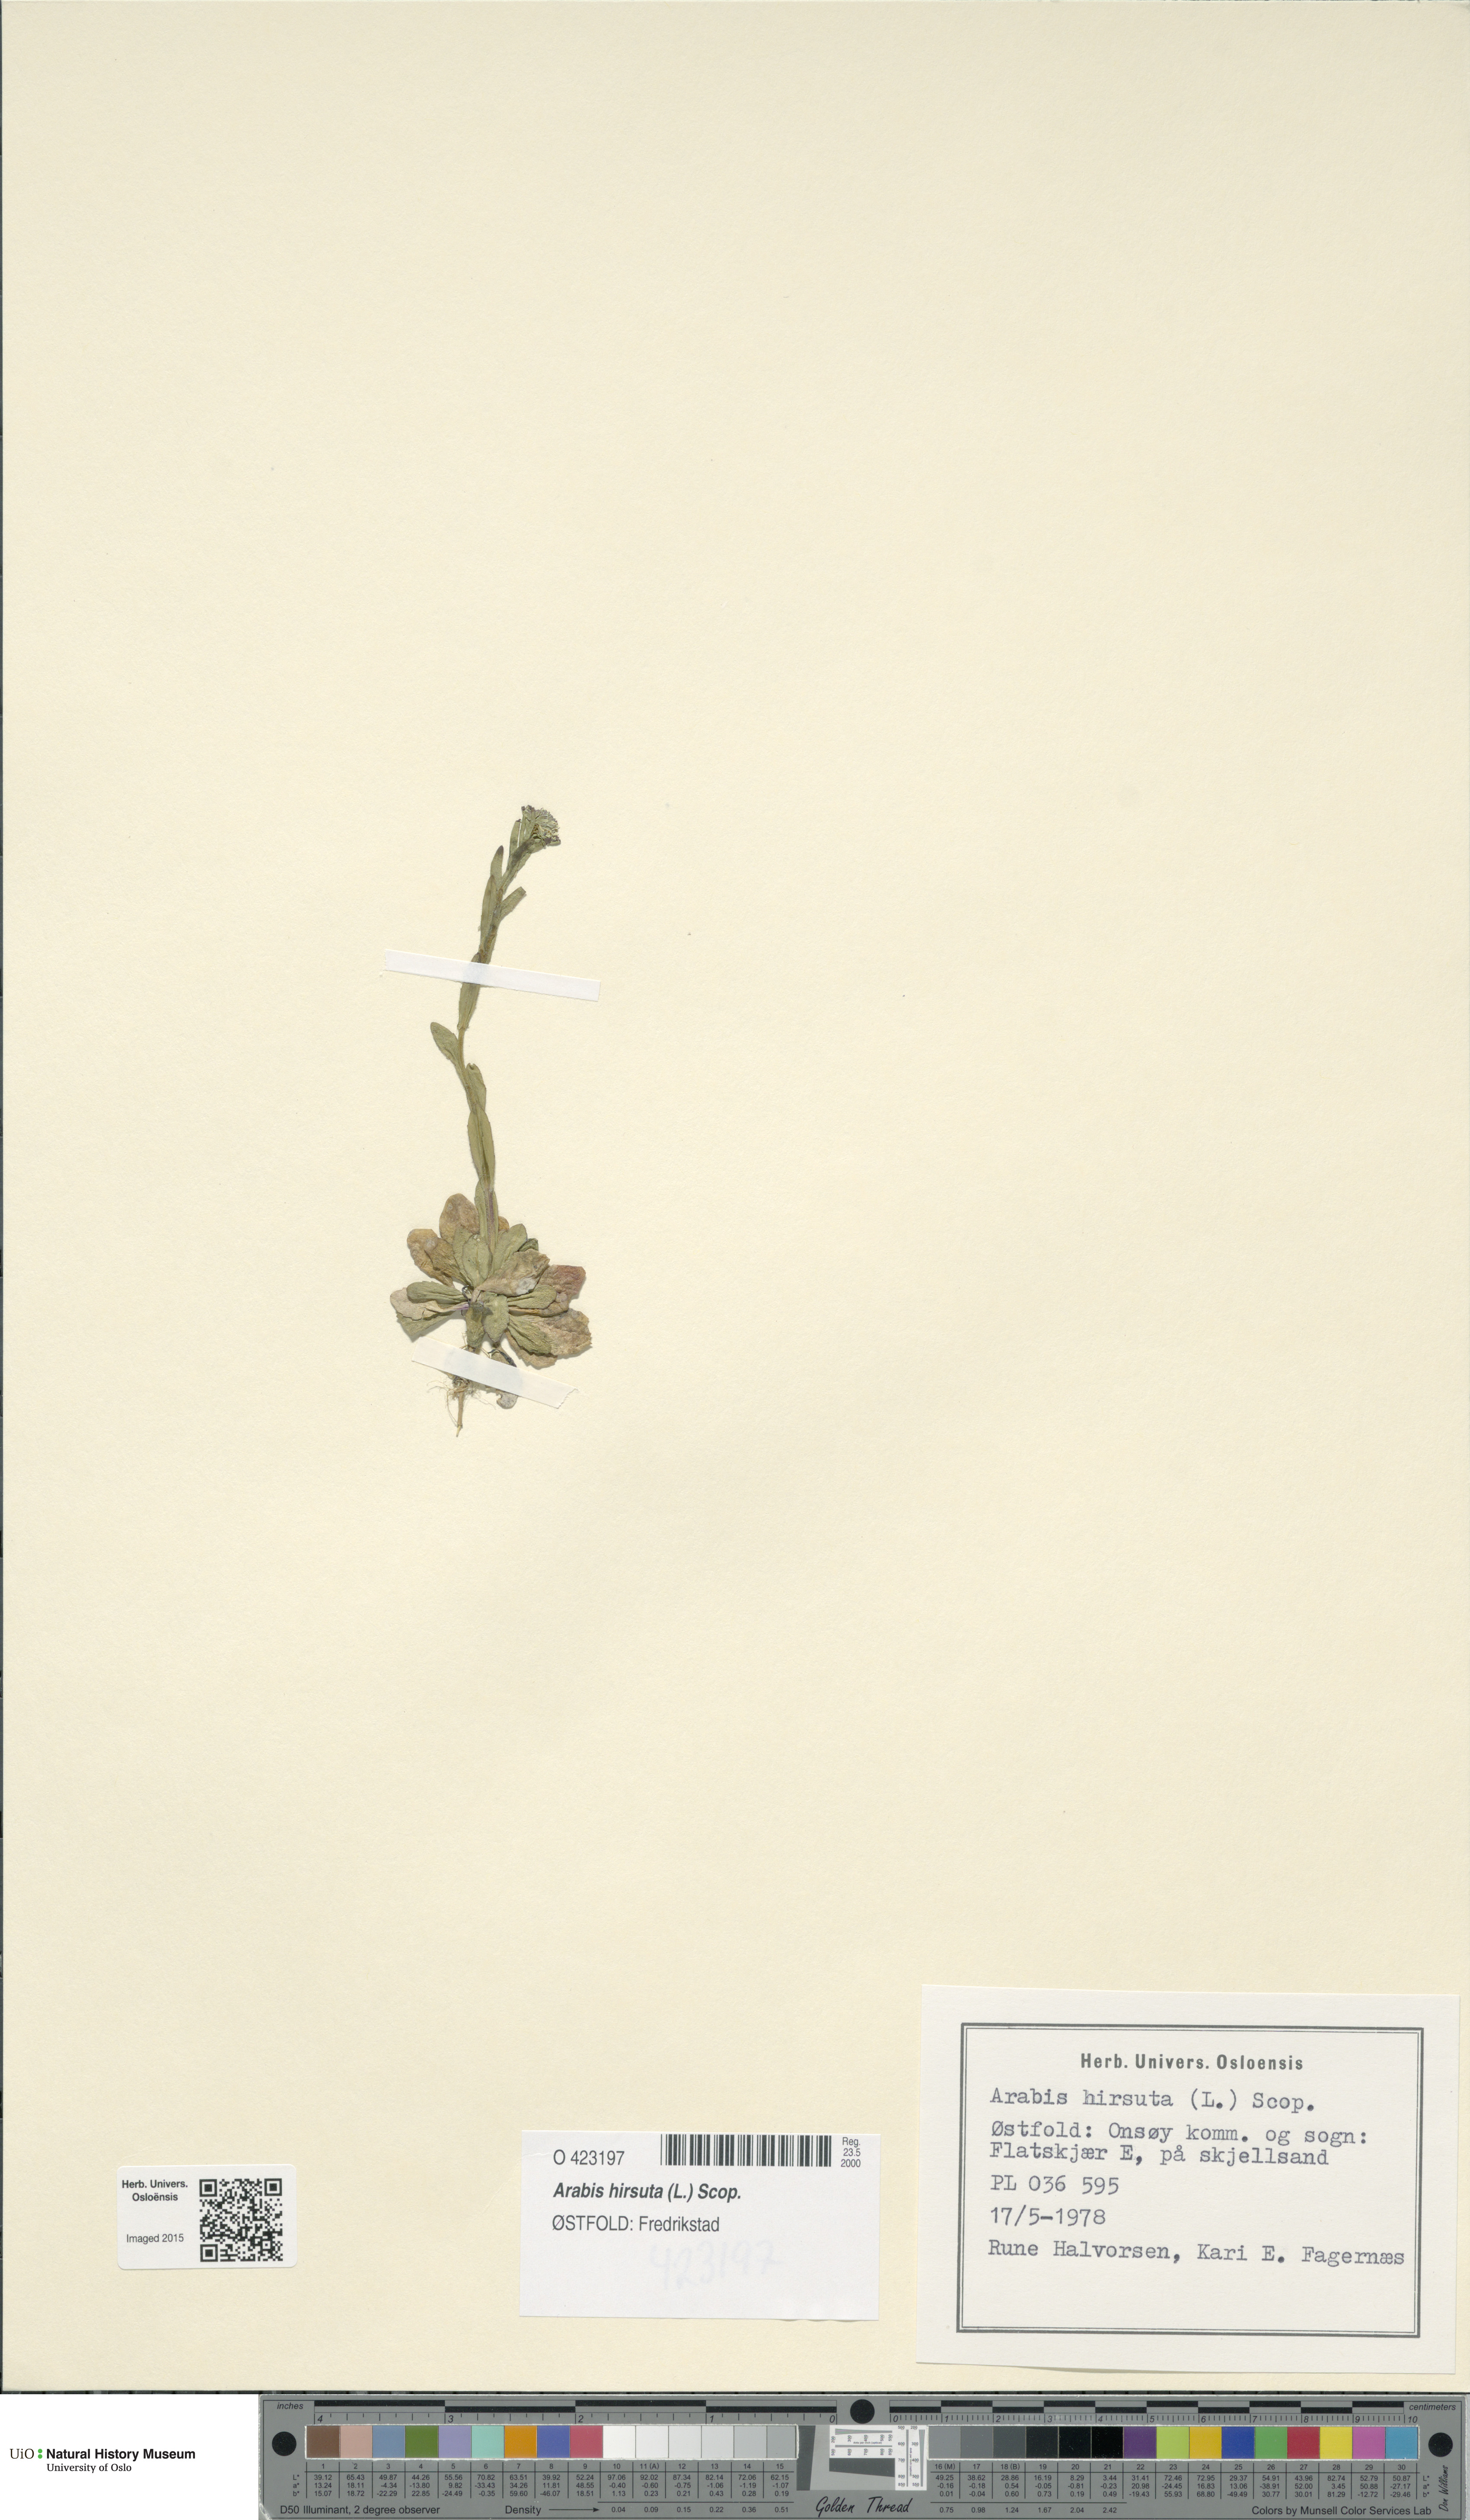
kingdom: Plantae
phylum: Tracheophyta
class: Magnoliopsida
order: Brassicales
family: Brassicaceae
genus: Arabis
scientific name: Arabis hirsuta
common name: Hairy rock-cress
